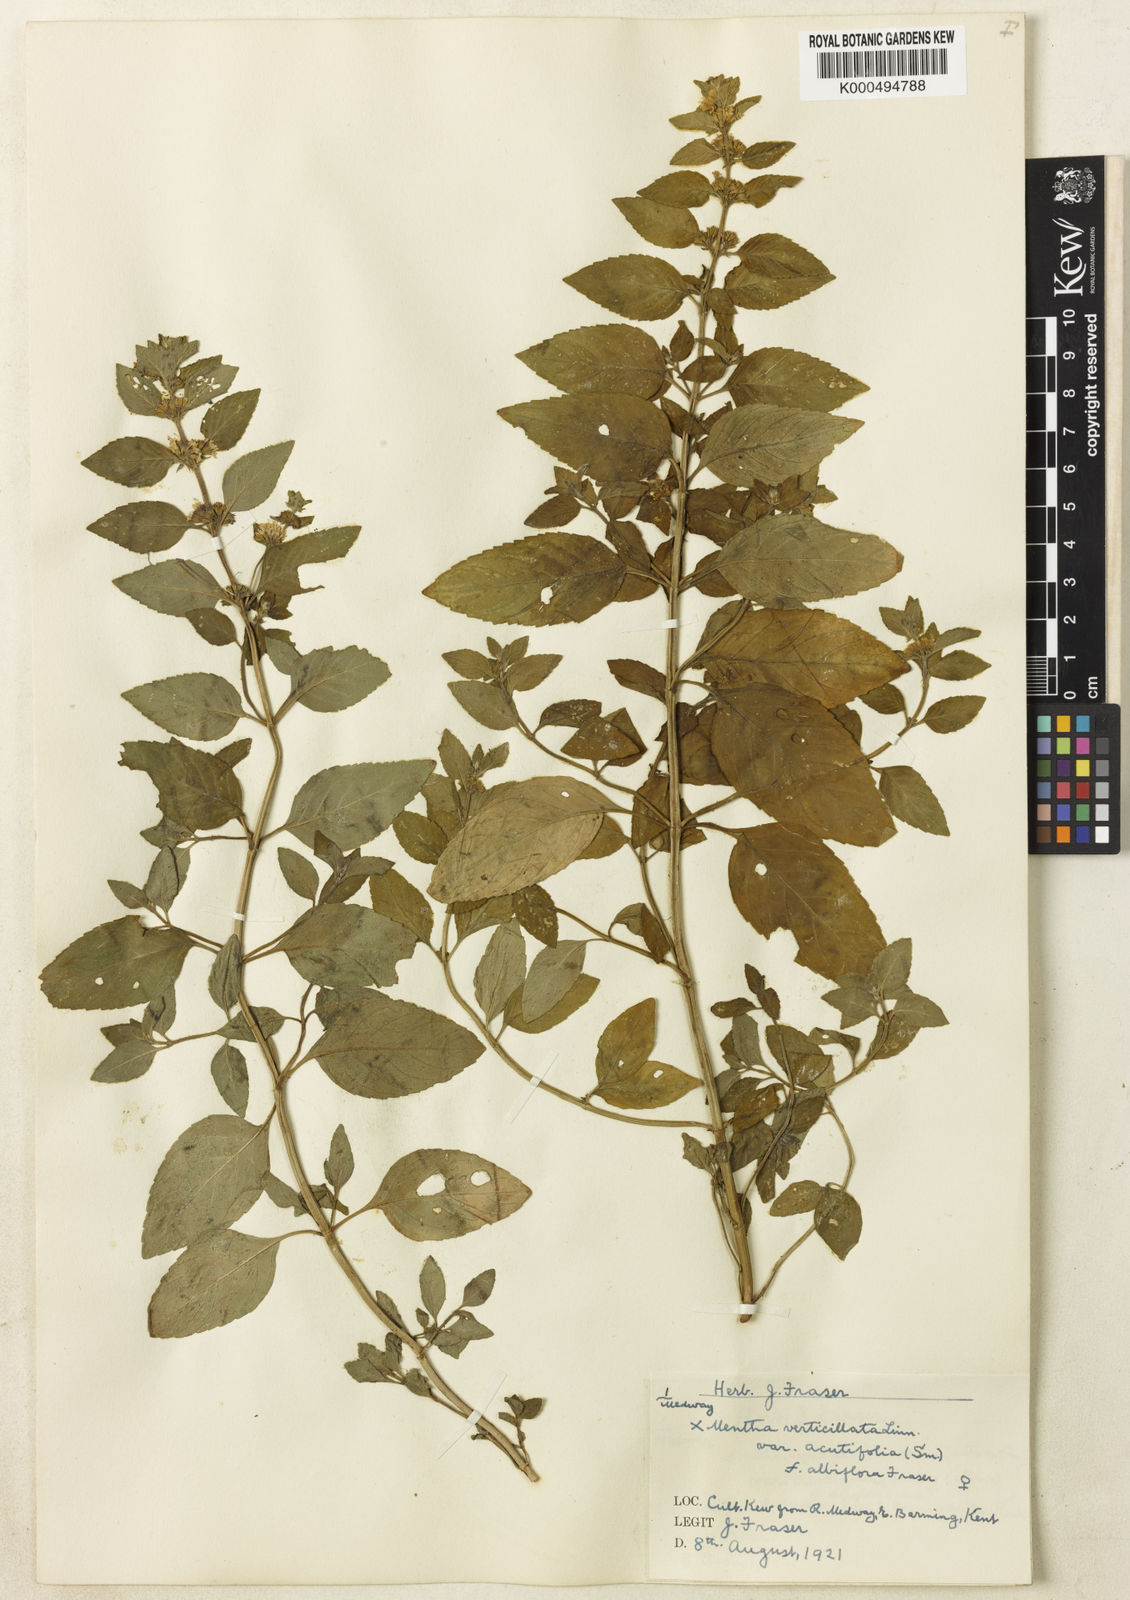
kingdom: Plantae
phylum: Tracheophyta
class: Magnoliopsida
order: Lamiales
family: Lamiaceae
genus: Mentha
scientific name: Mentha verticillata
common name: Mint
